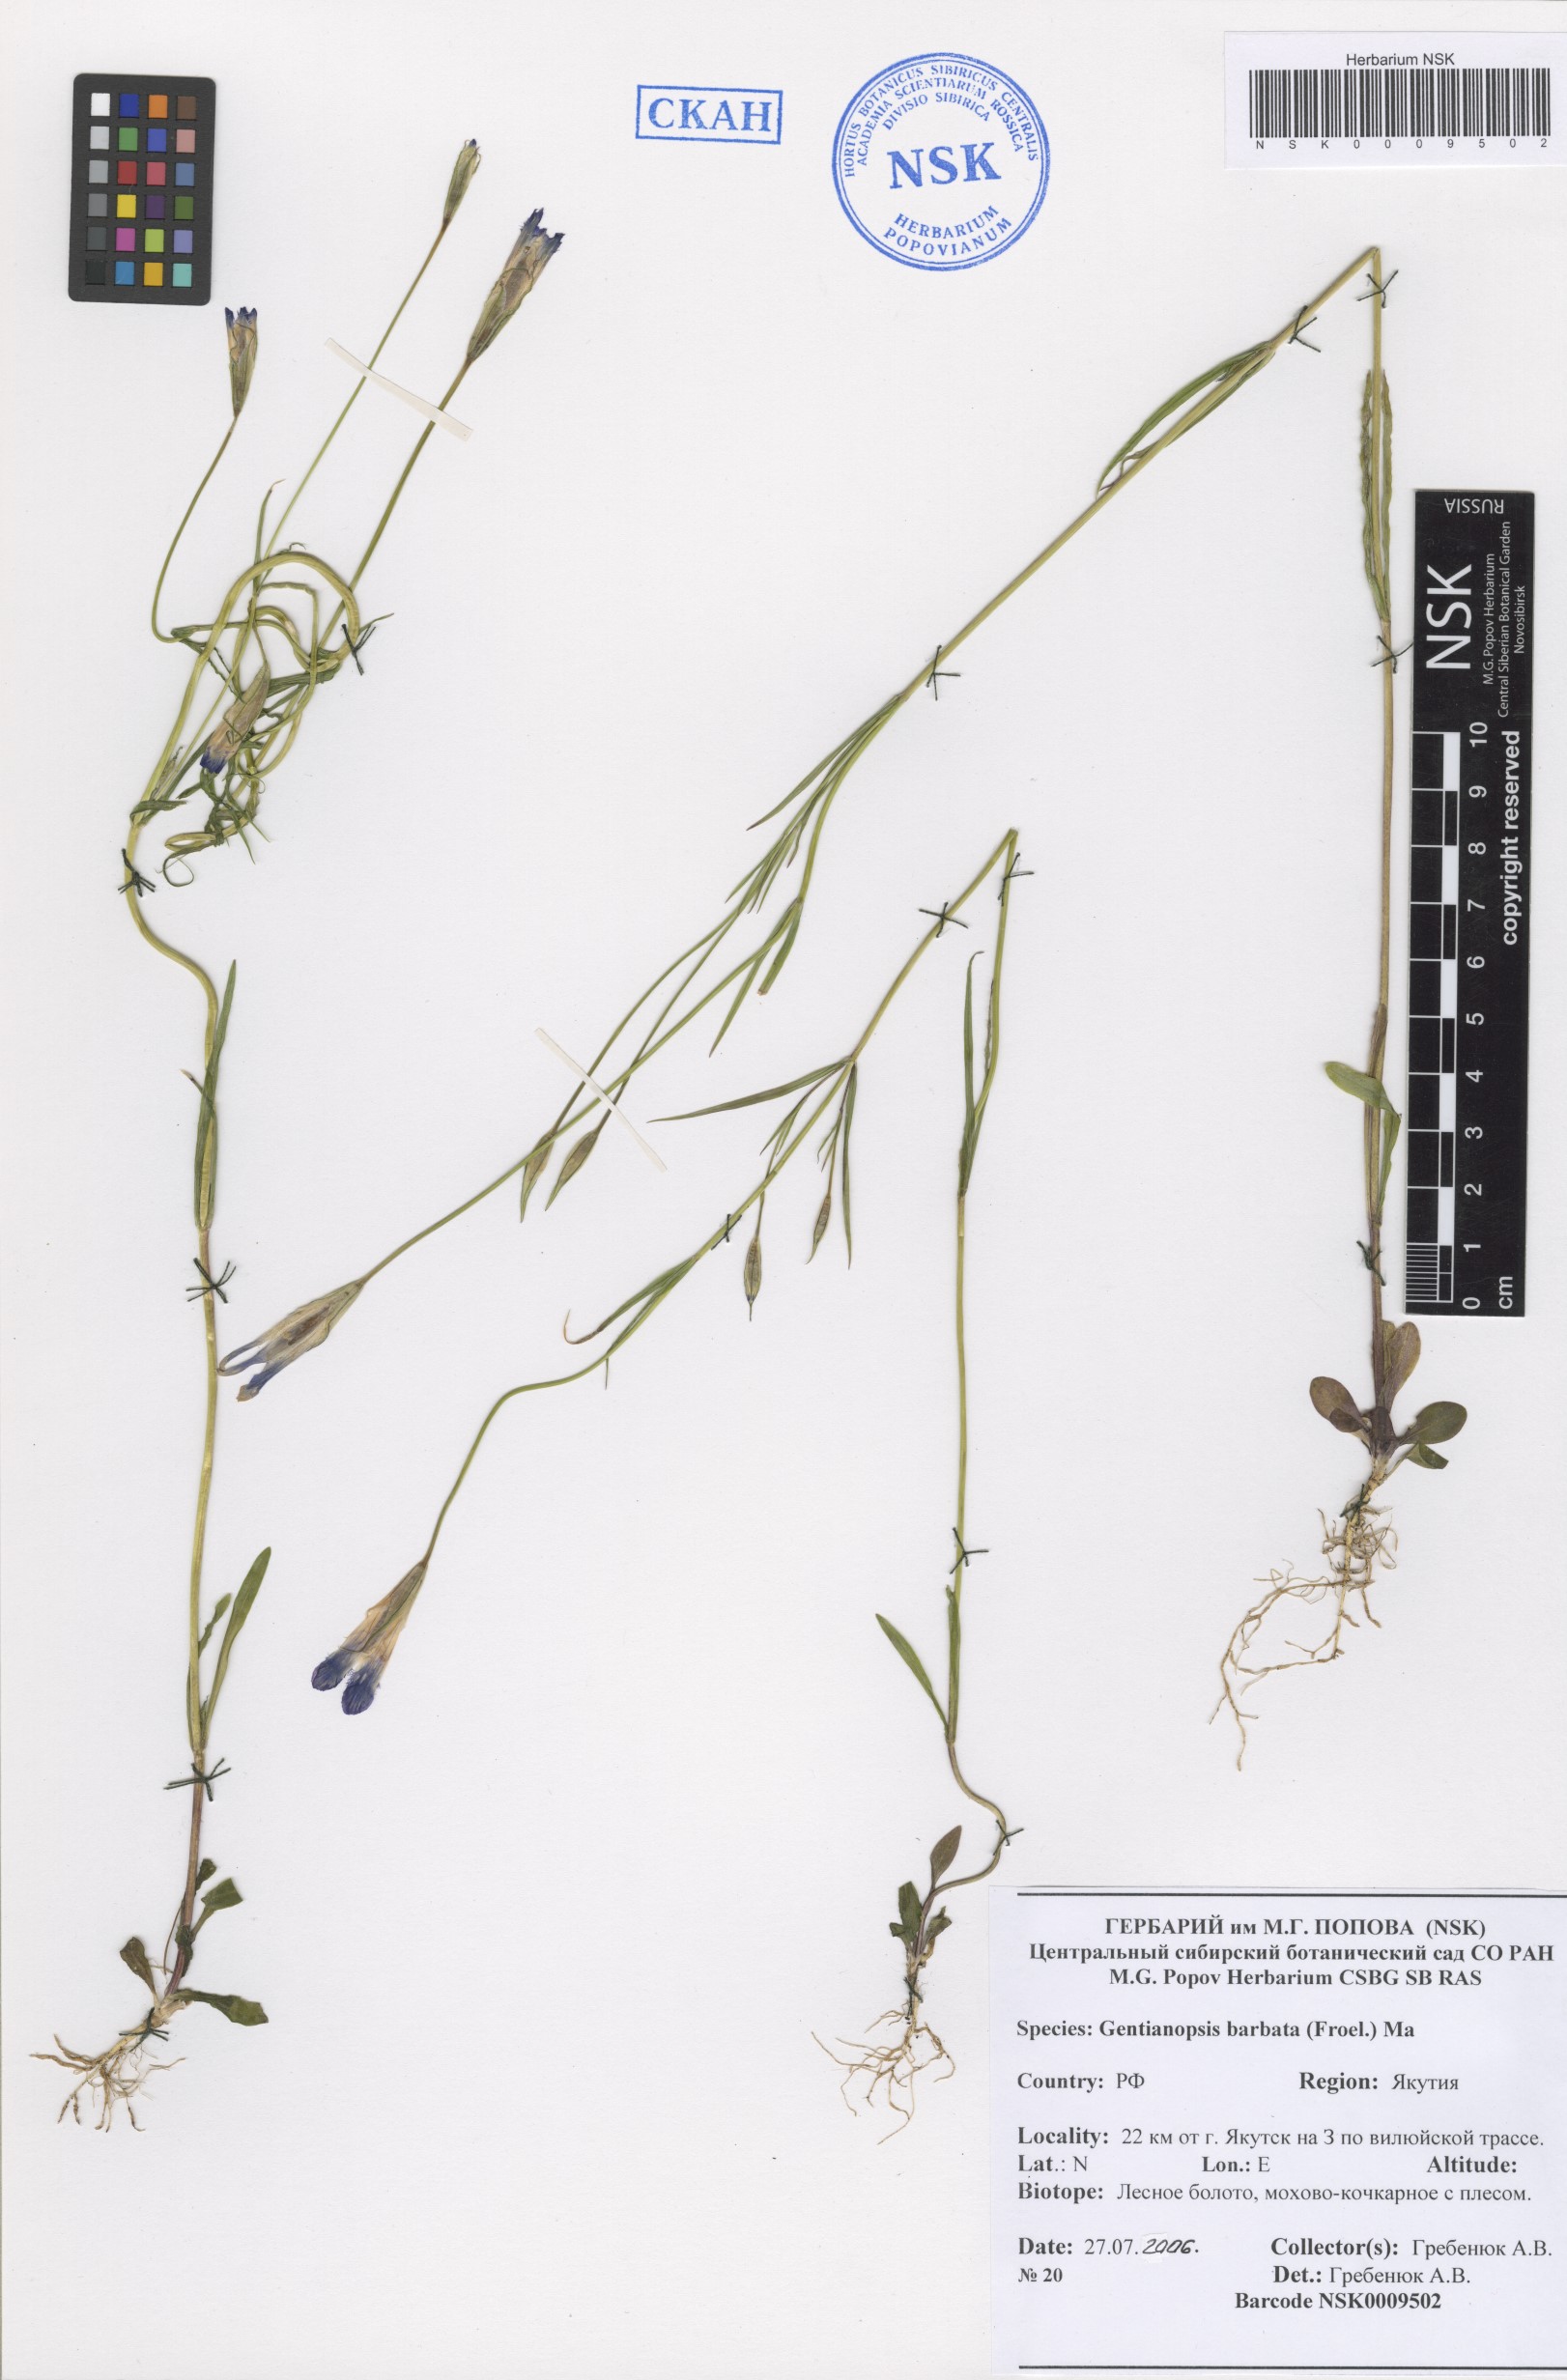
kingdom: Plantae
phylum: Tracheophyta
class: Magnoliopsida
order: Gentianales
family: Gentianaceae
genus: Gentianopsis
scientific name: Gentianopsis barbata
